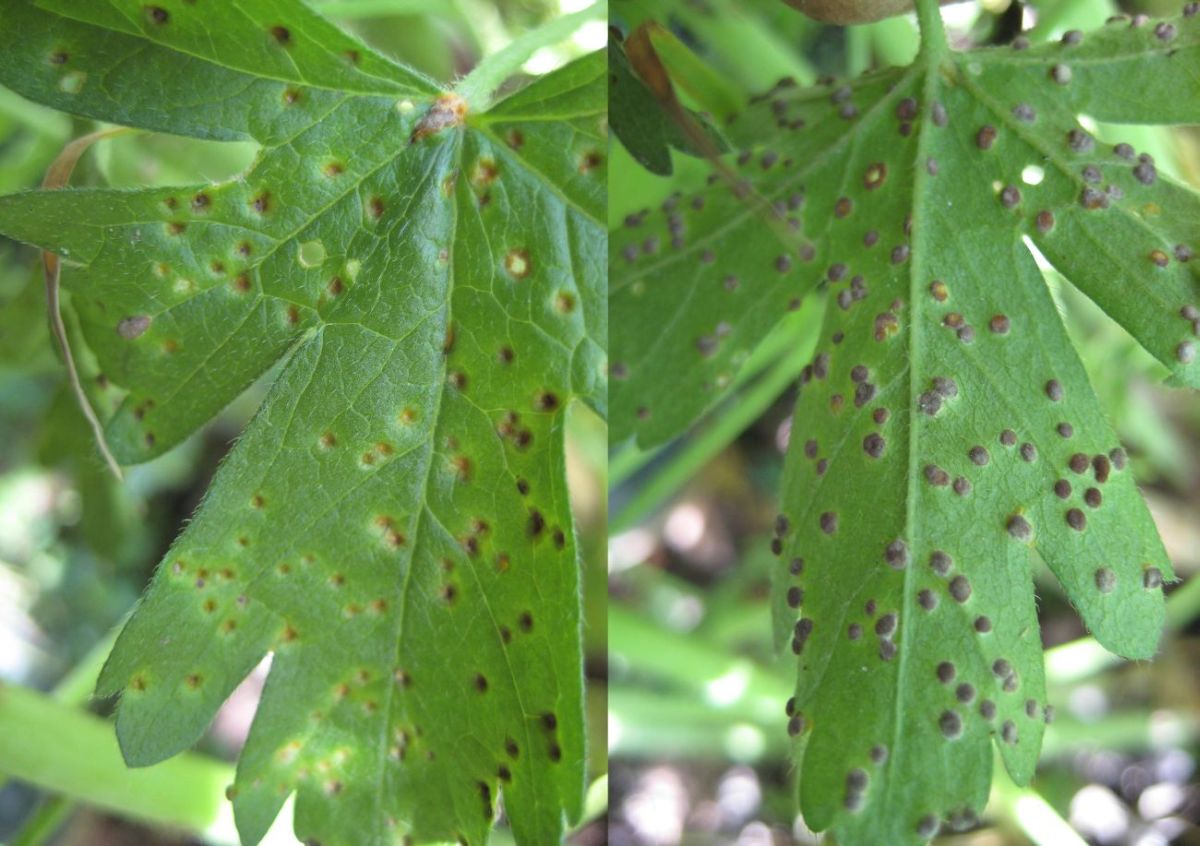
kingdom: Fungi
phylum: Basidiomycota
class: Pucciniomycetes
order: Pucciniales
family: Pucciniaceae
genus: Puccinia
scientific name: Puccinia malvacearum
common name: stokrose-tvecellerust
